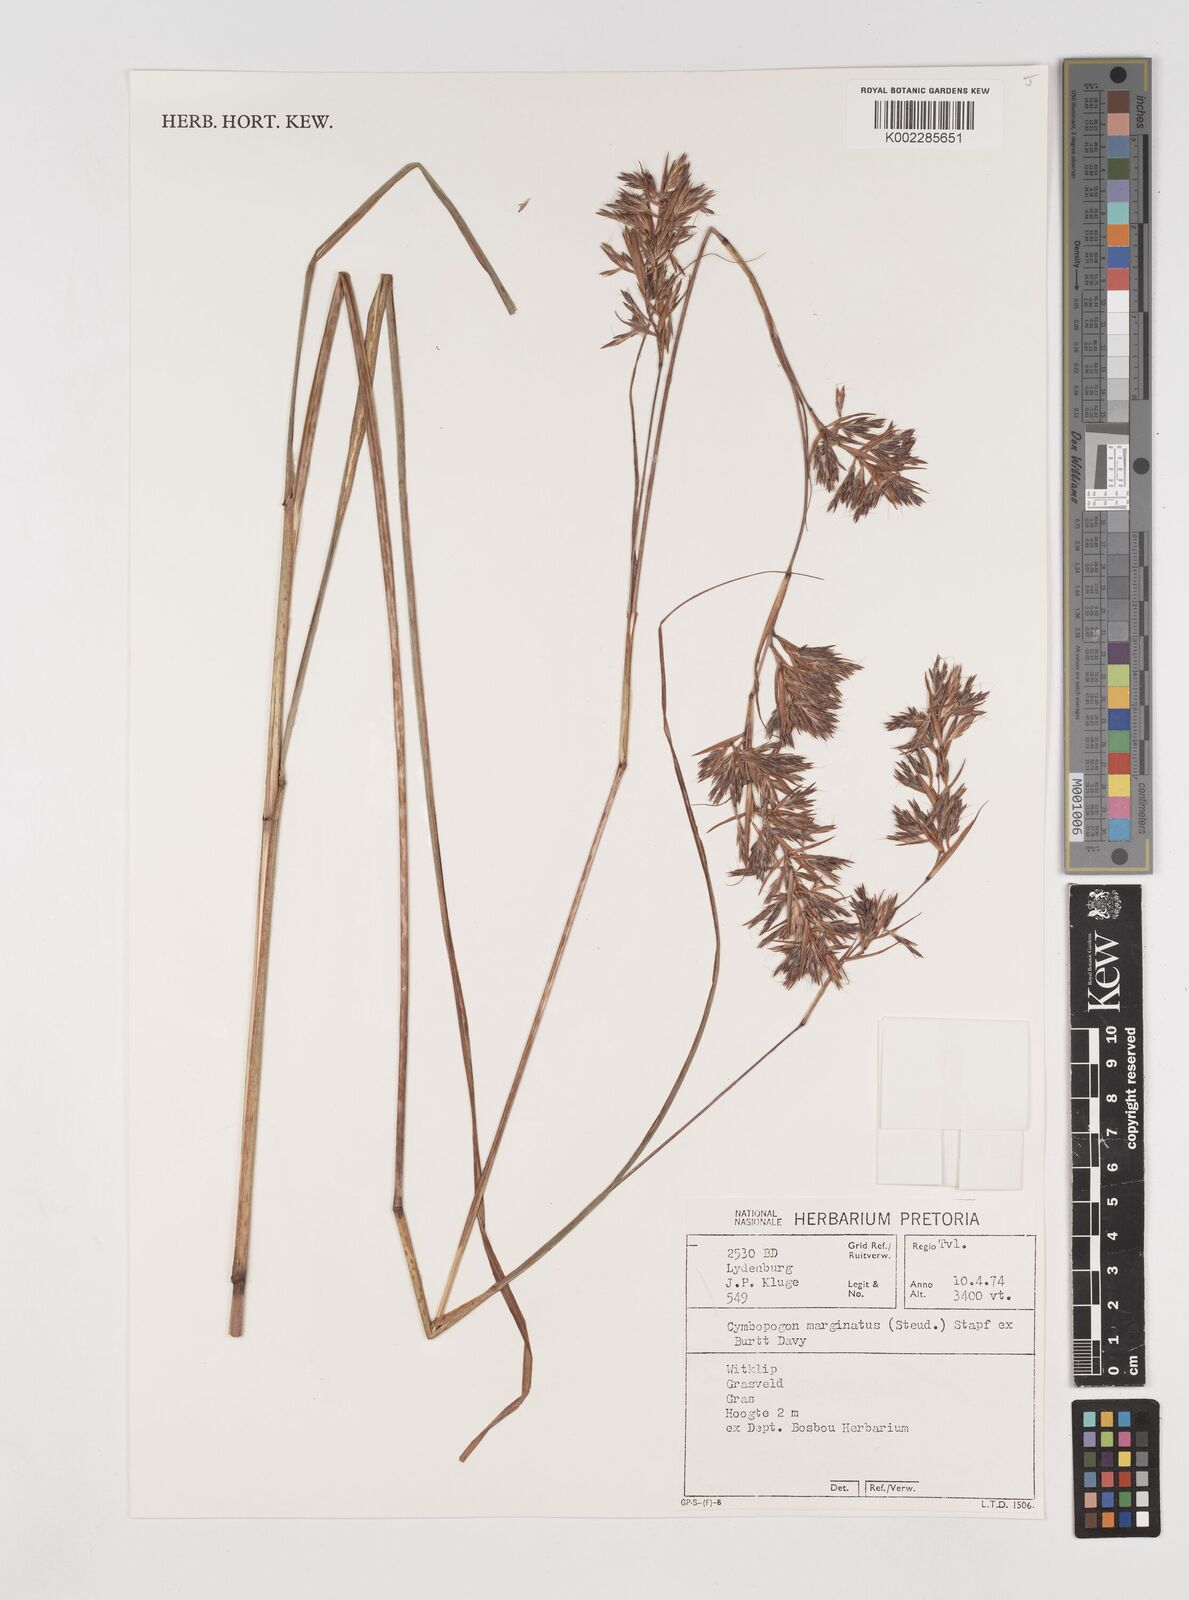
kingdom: Plantae
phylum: Tracheophyta
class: Liliopsida
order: Poales
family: Poaceae
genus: Cymbopogon
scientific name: Cymbopogon marginatus
